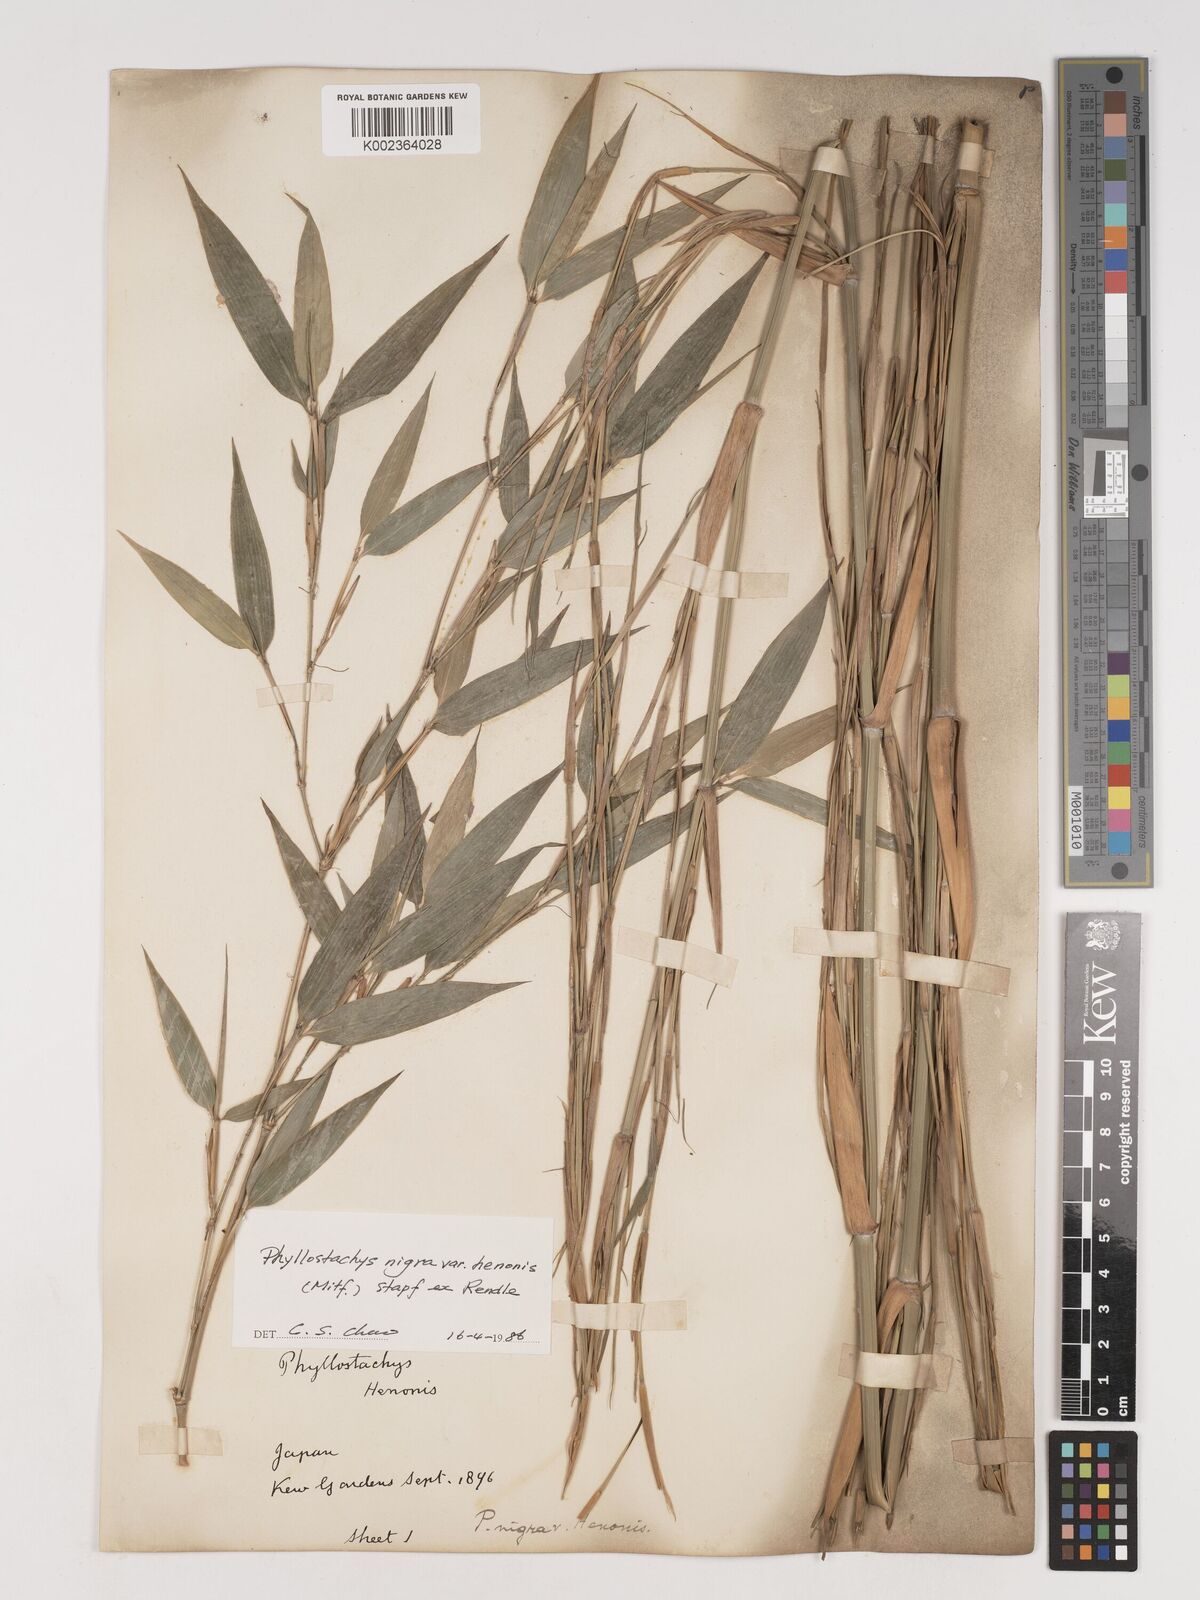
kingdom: Plantae
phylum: Tracheophyta
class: Liliopsida
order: Poales
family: Poaceae
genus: Phyllostachys
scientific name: Phyllostachys nigra
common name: Black bamboo
